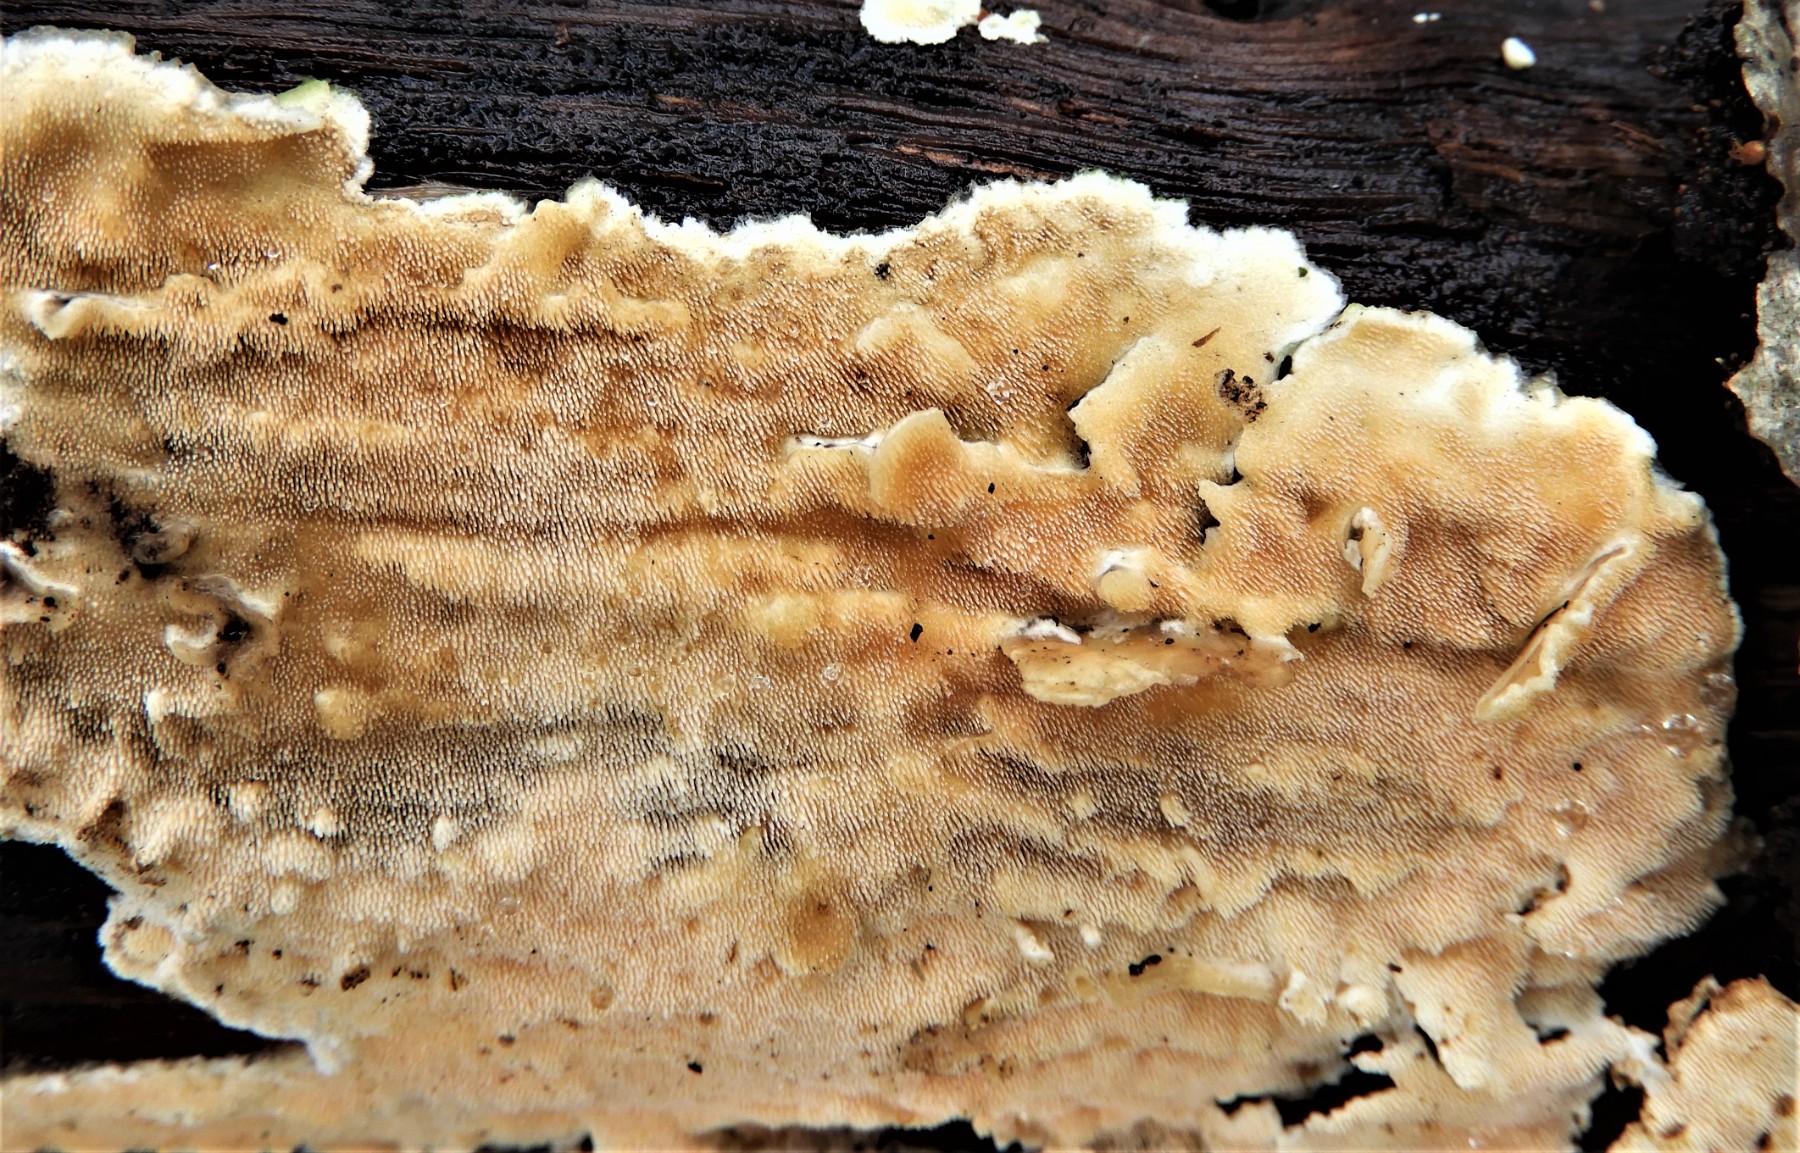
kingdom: Fungi
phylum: Basidiomycota
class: Agaricomycetes
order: Polyporales
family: Steccherinaceae
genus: Steccherinum
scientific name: Steccherinum ochraceum
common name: almindelig skønpig
